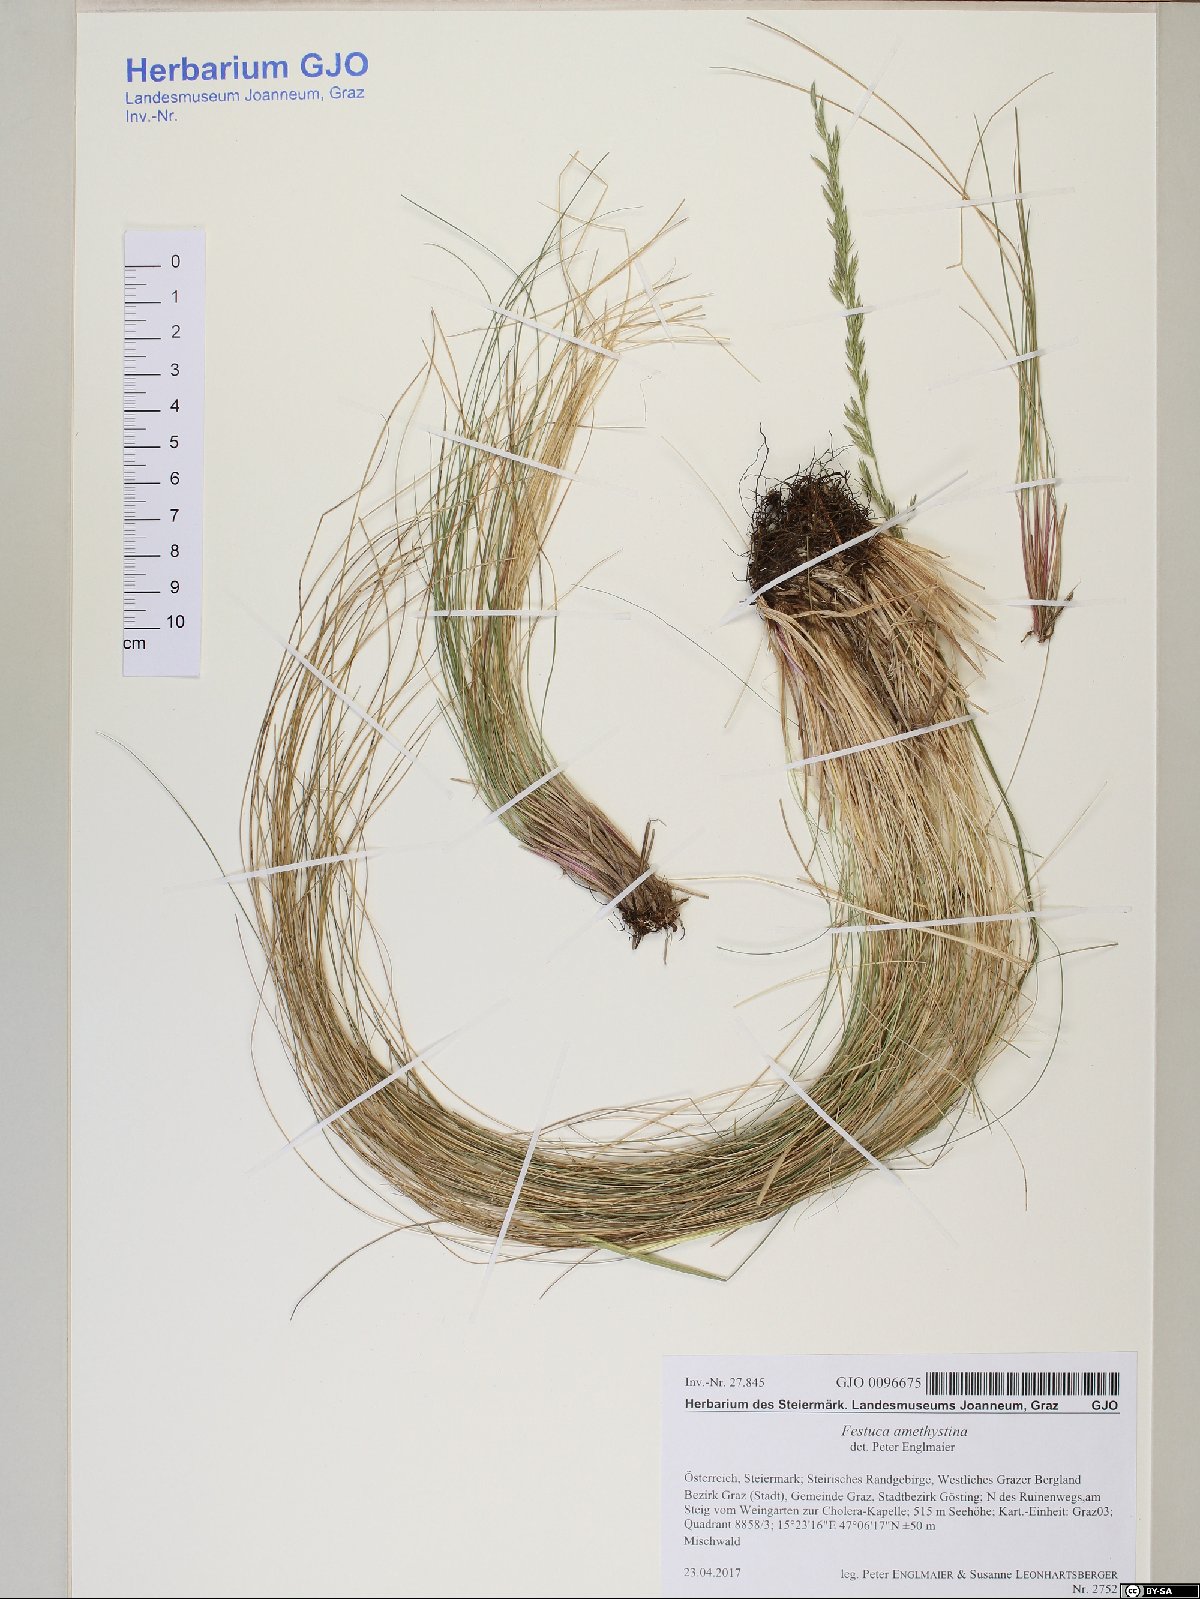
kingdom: Plantae
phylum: Tracheophyta
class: Liliopsida
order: Poales
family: Poaceae
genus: Festuca
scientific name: Festuca amethystina
